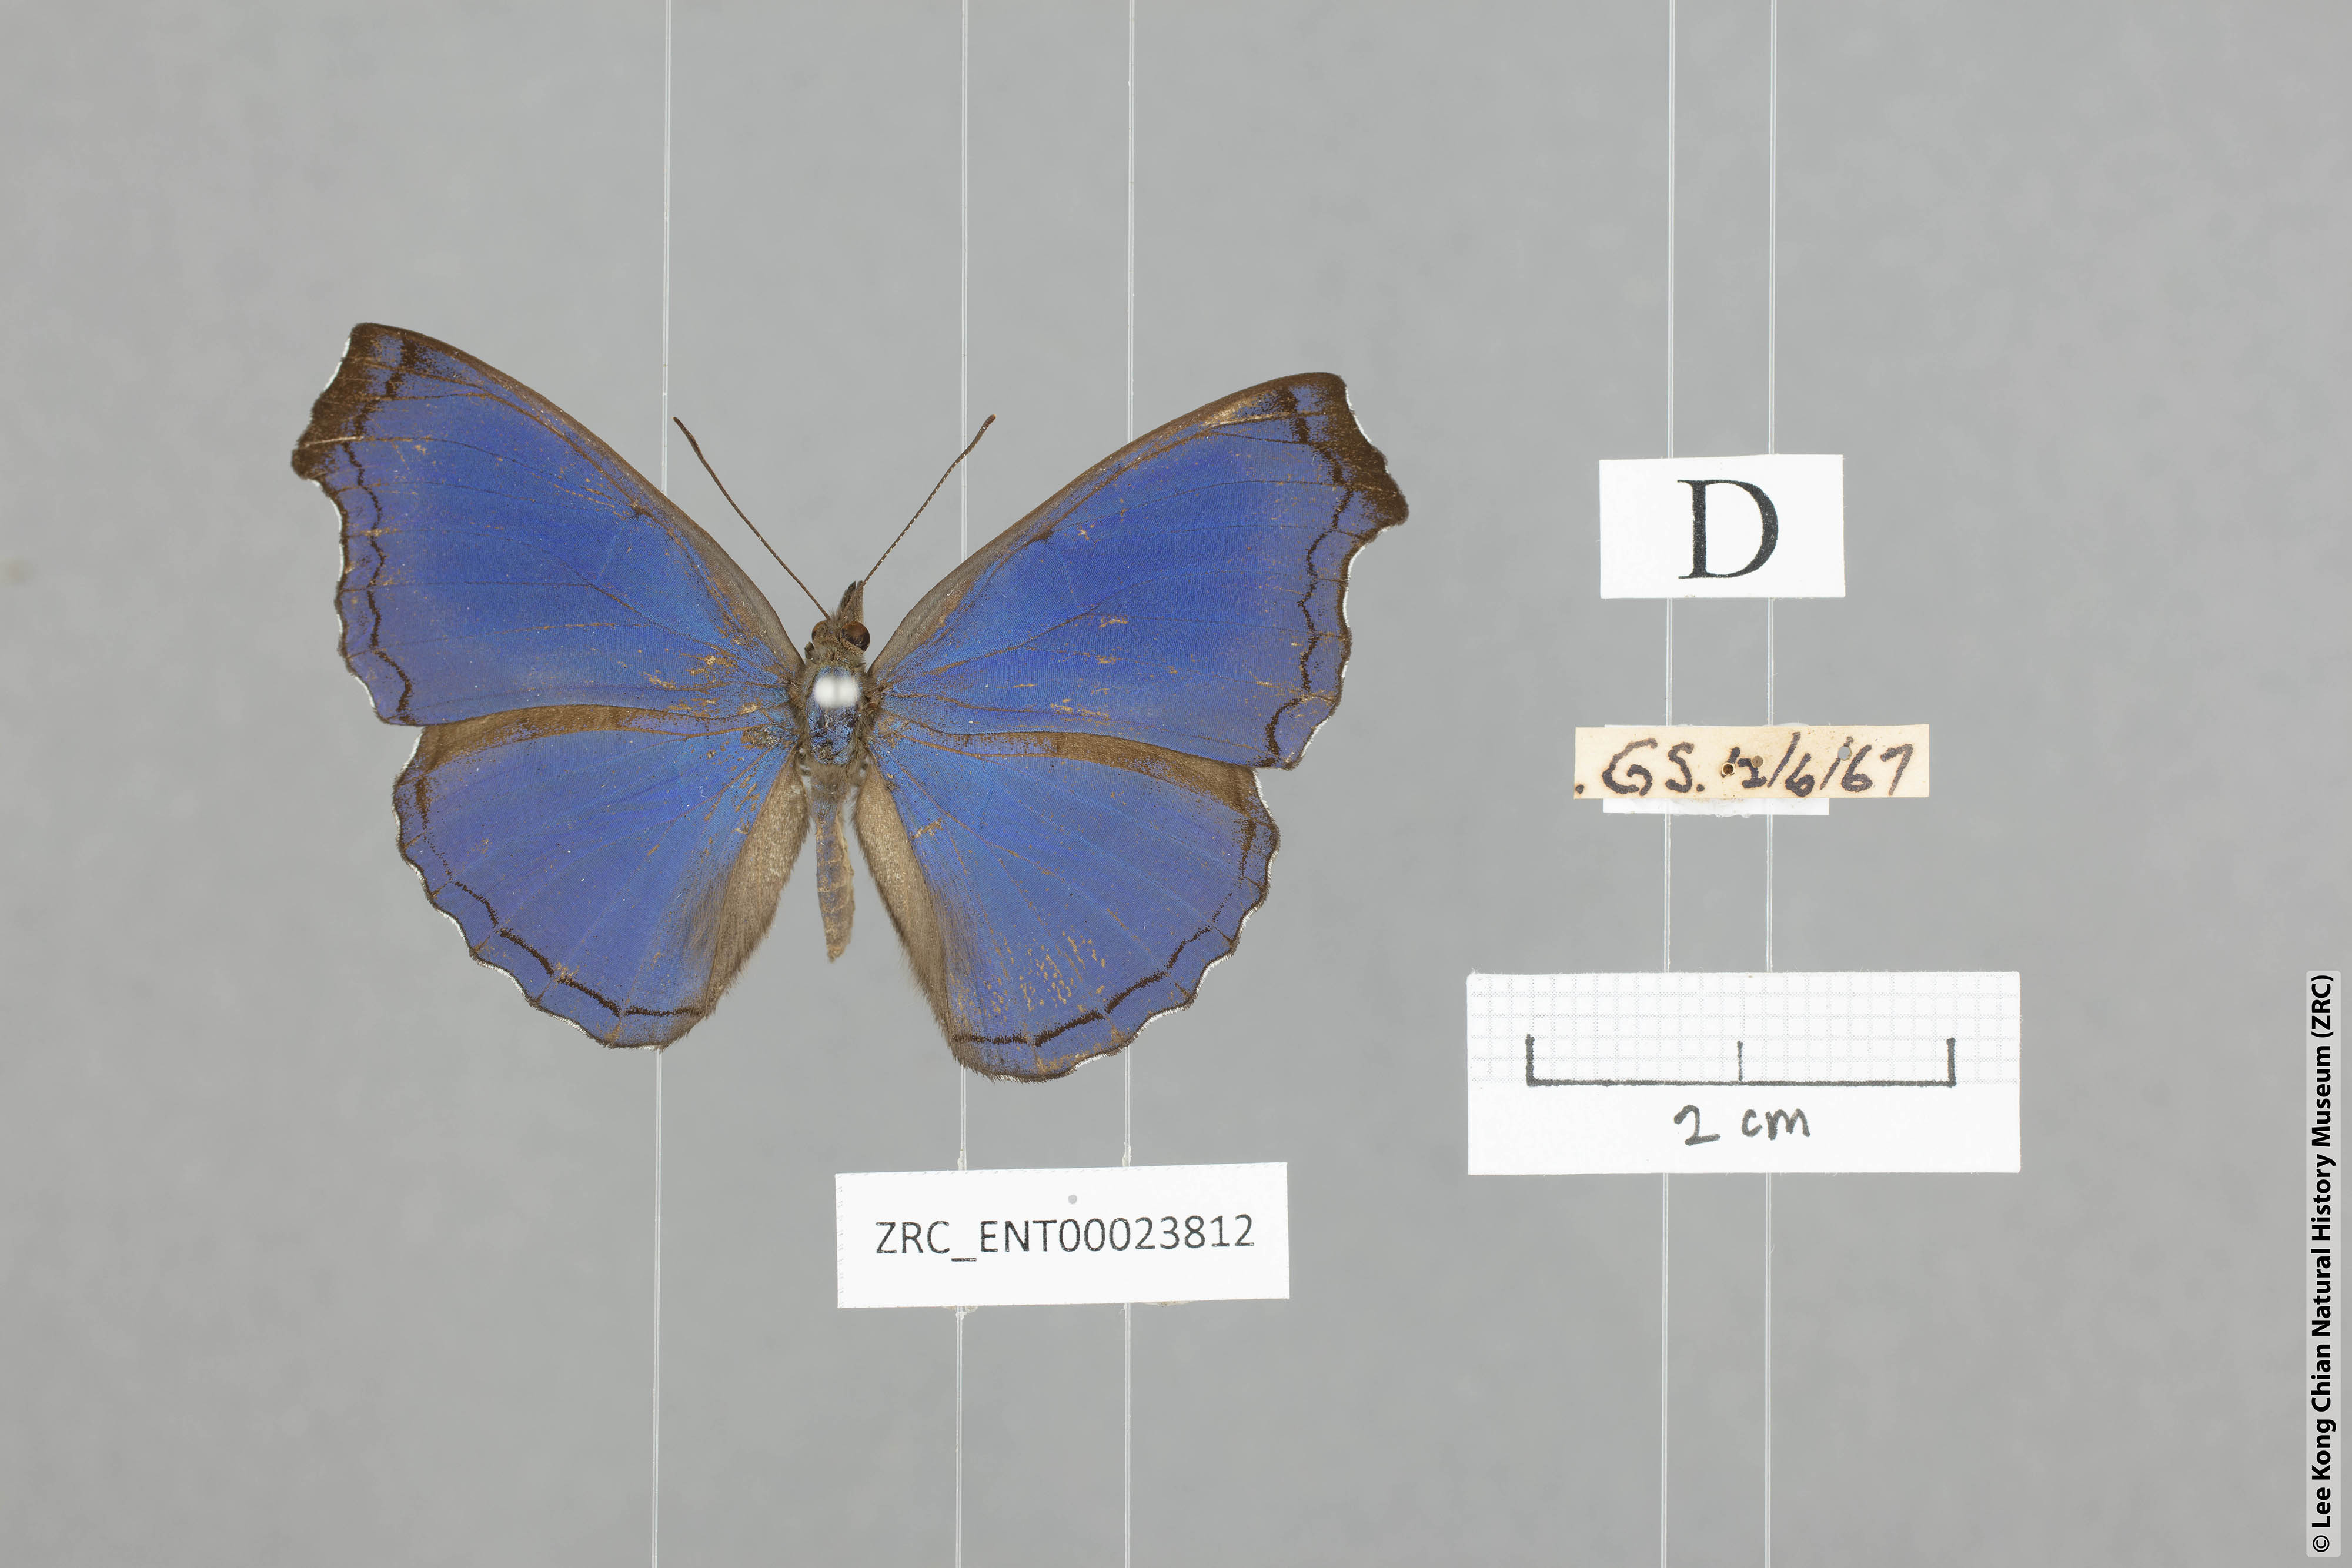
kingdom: Animalia
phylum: Arthropoda
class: Insecta
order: Lepidoptera
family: Nymphalidae
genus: Laringa
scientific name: Laringa castelnaui
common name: Blue dandy
